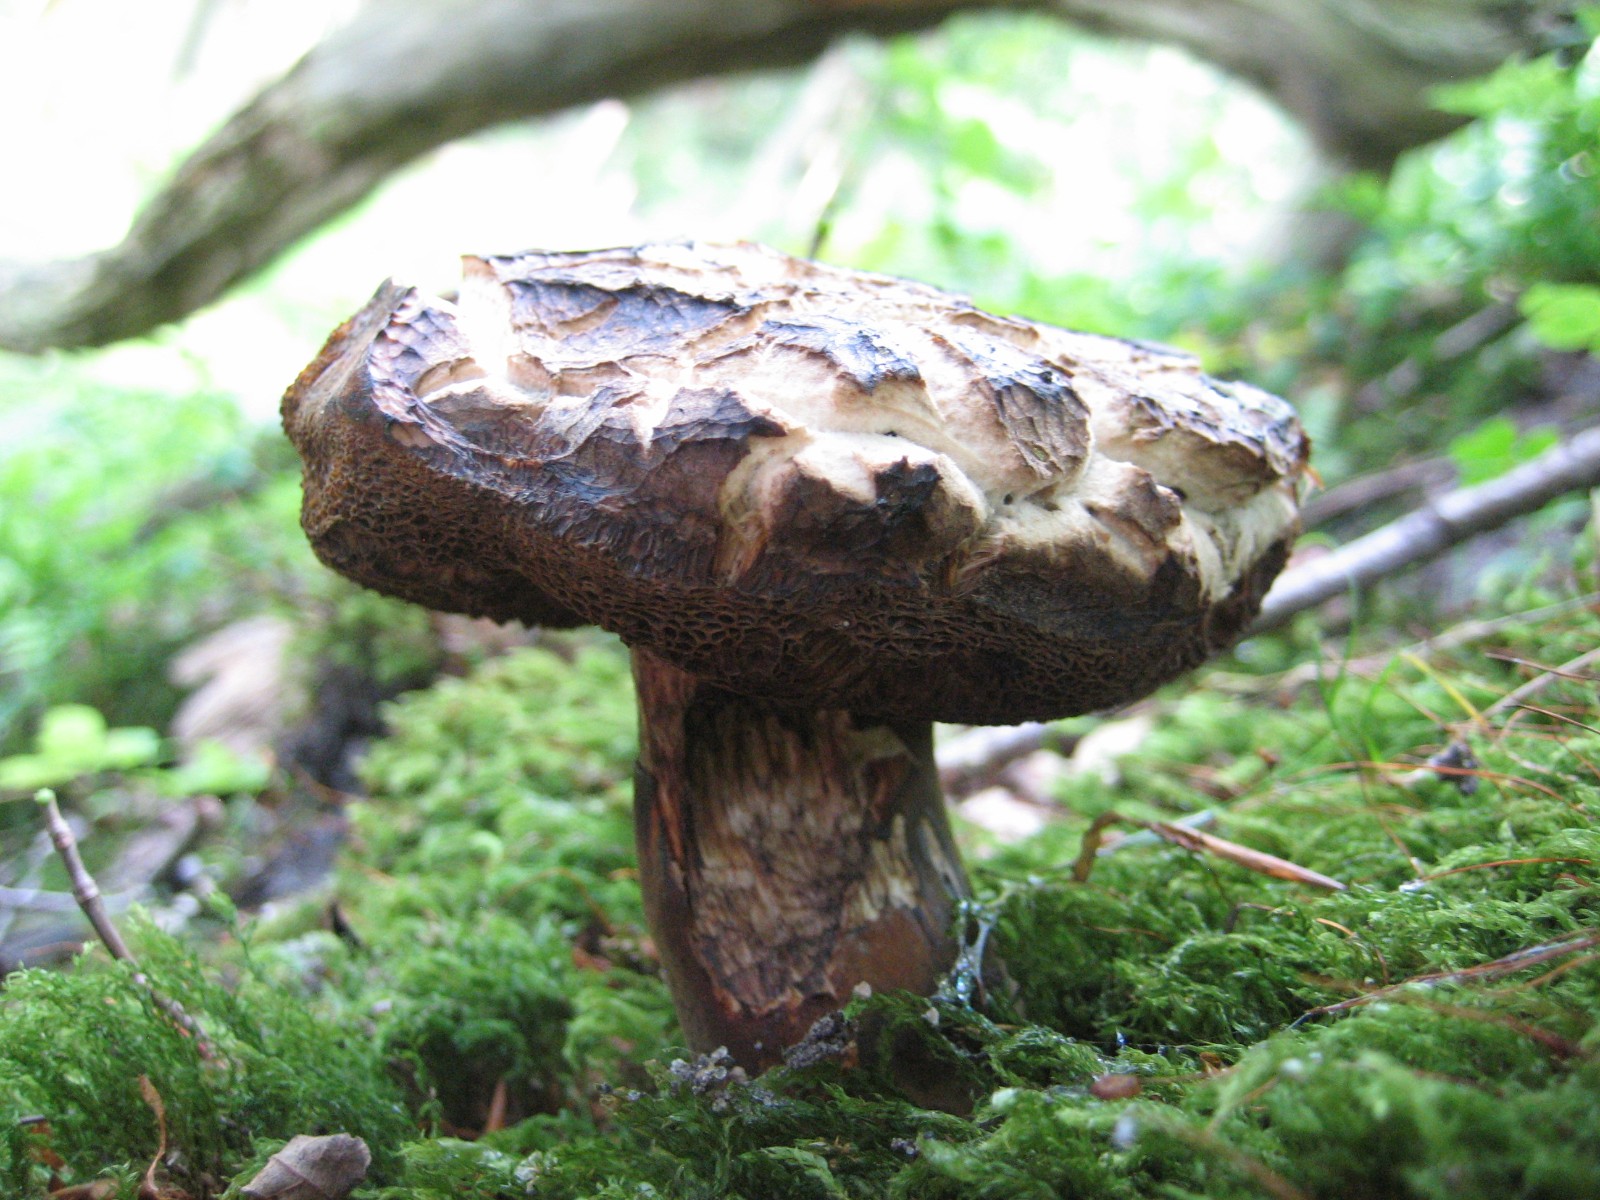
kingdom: Fungi
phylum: Basidiomycota
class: Agaricomycetes
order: Boletales
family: Boletaceae
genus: Porphyrellus
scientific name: Porphyrellus porphyrosporus
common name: sodrørhat
